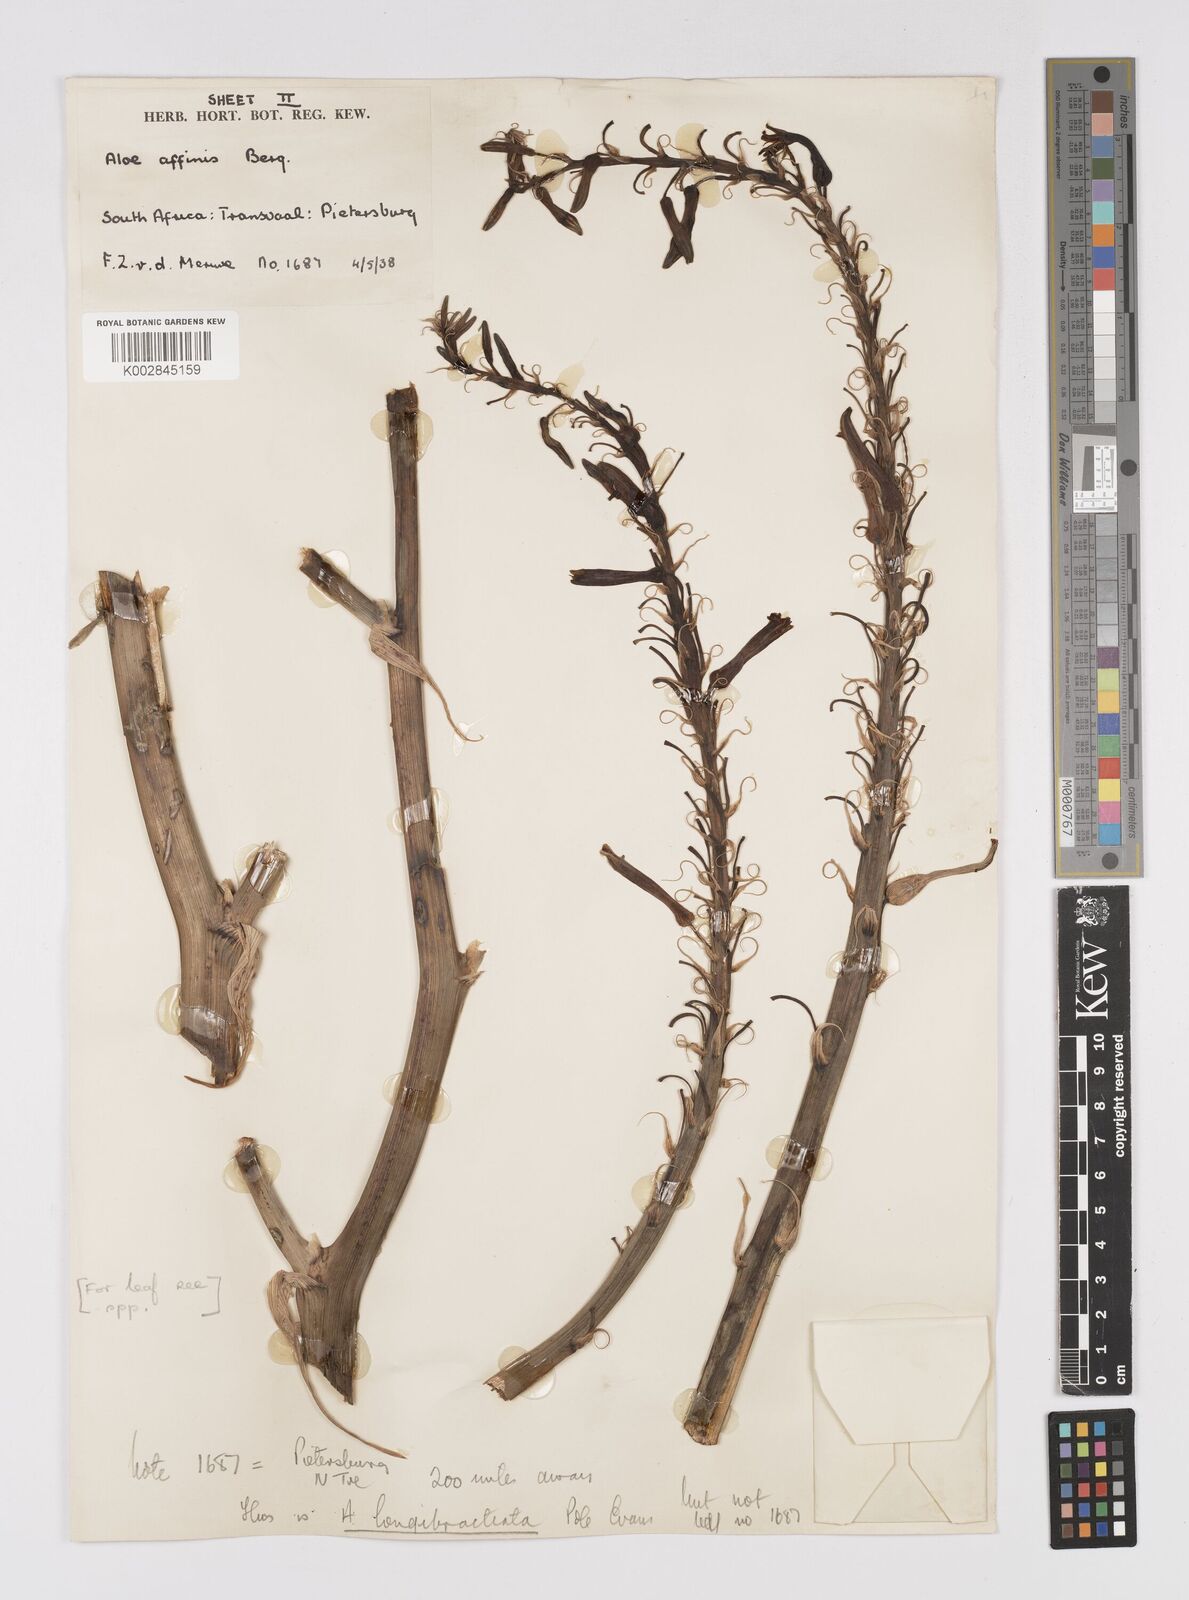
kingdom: Plantae
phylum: Tracheophyta
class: Liliopsida
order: Asparagales
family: Asphodelaceae
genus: Aloe
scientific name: Aloe longibracteata
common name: Limpopo spotted aloe
